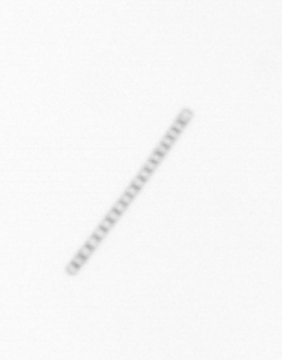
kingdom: Chromista
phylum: Ochrophyta
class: Bacillariophyceae
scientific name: Bacillariophyceae
